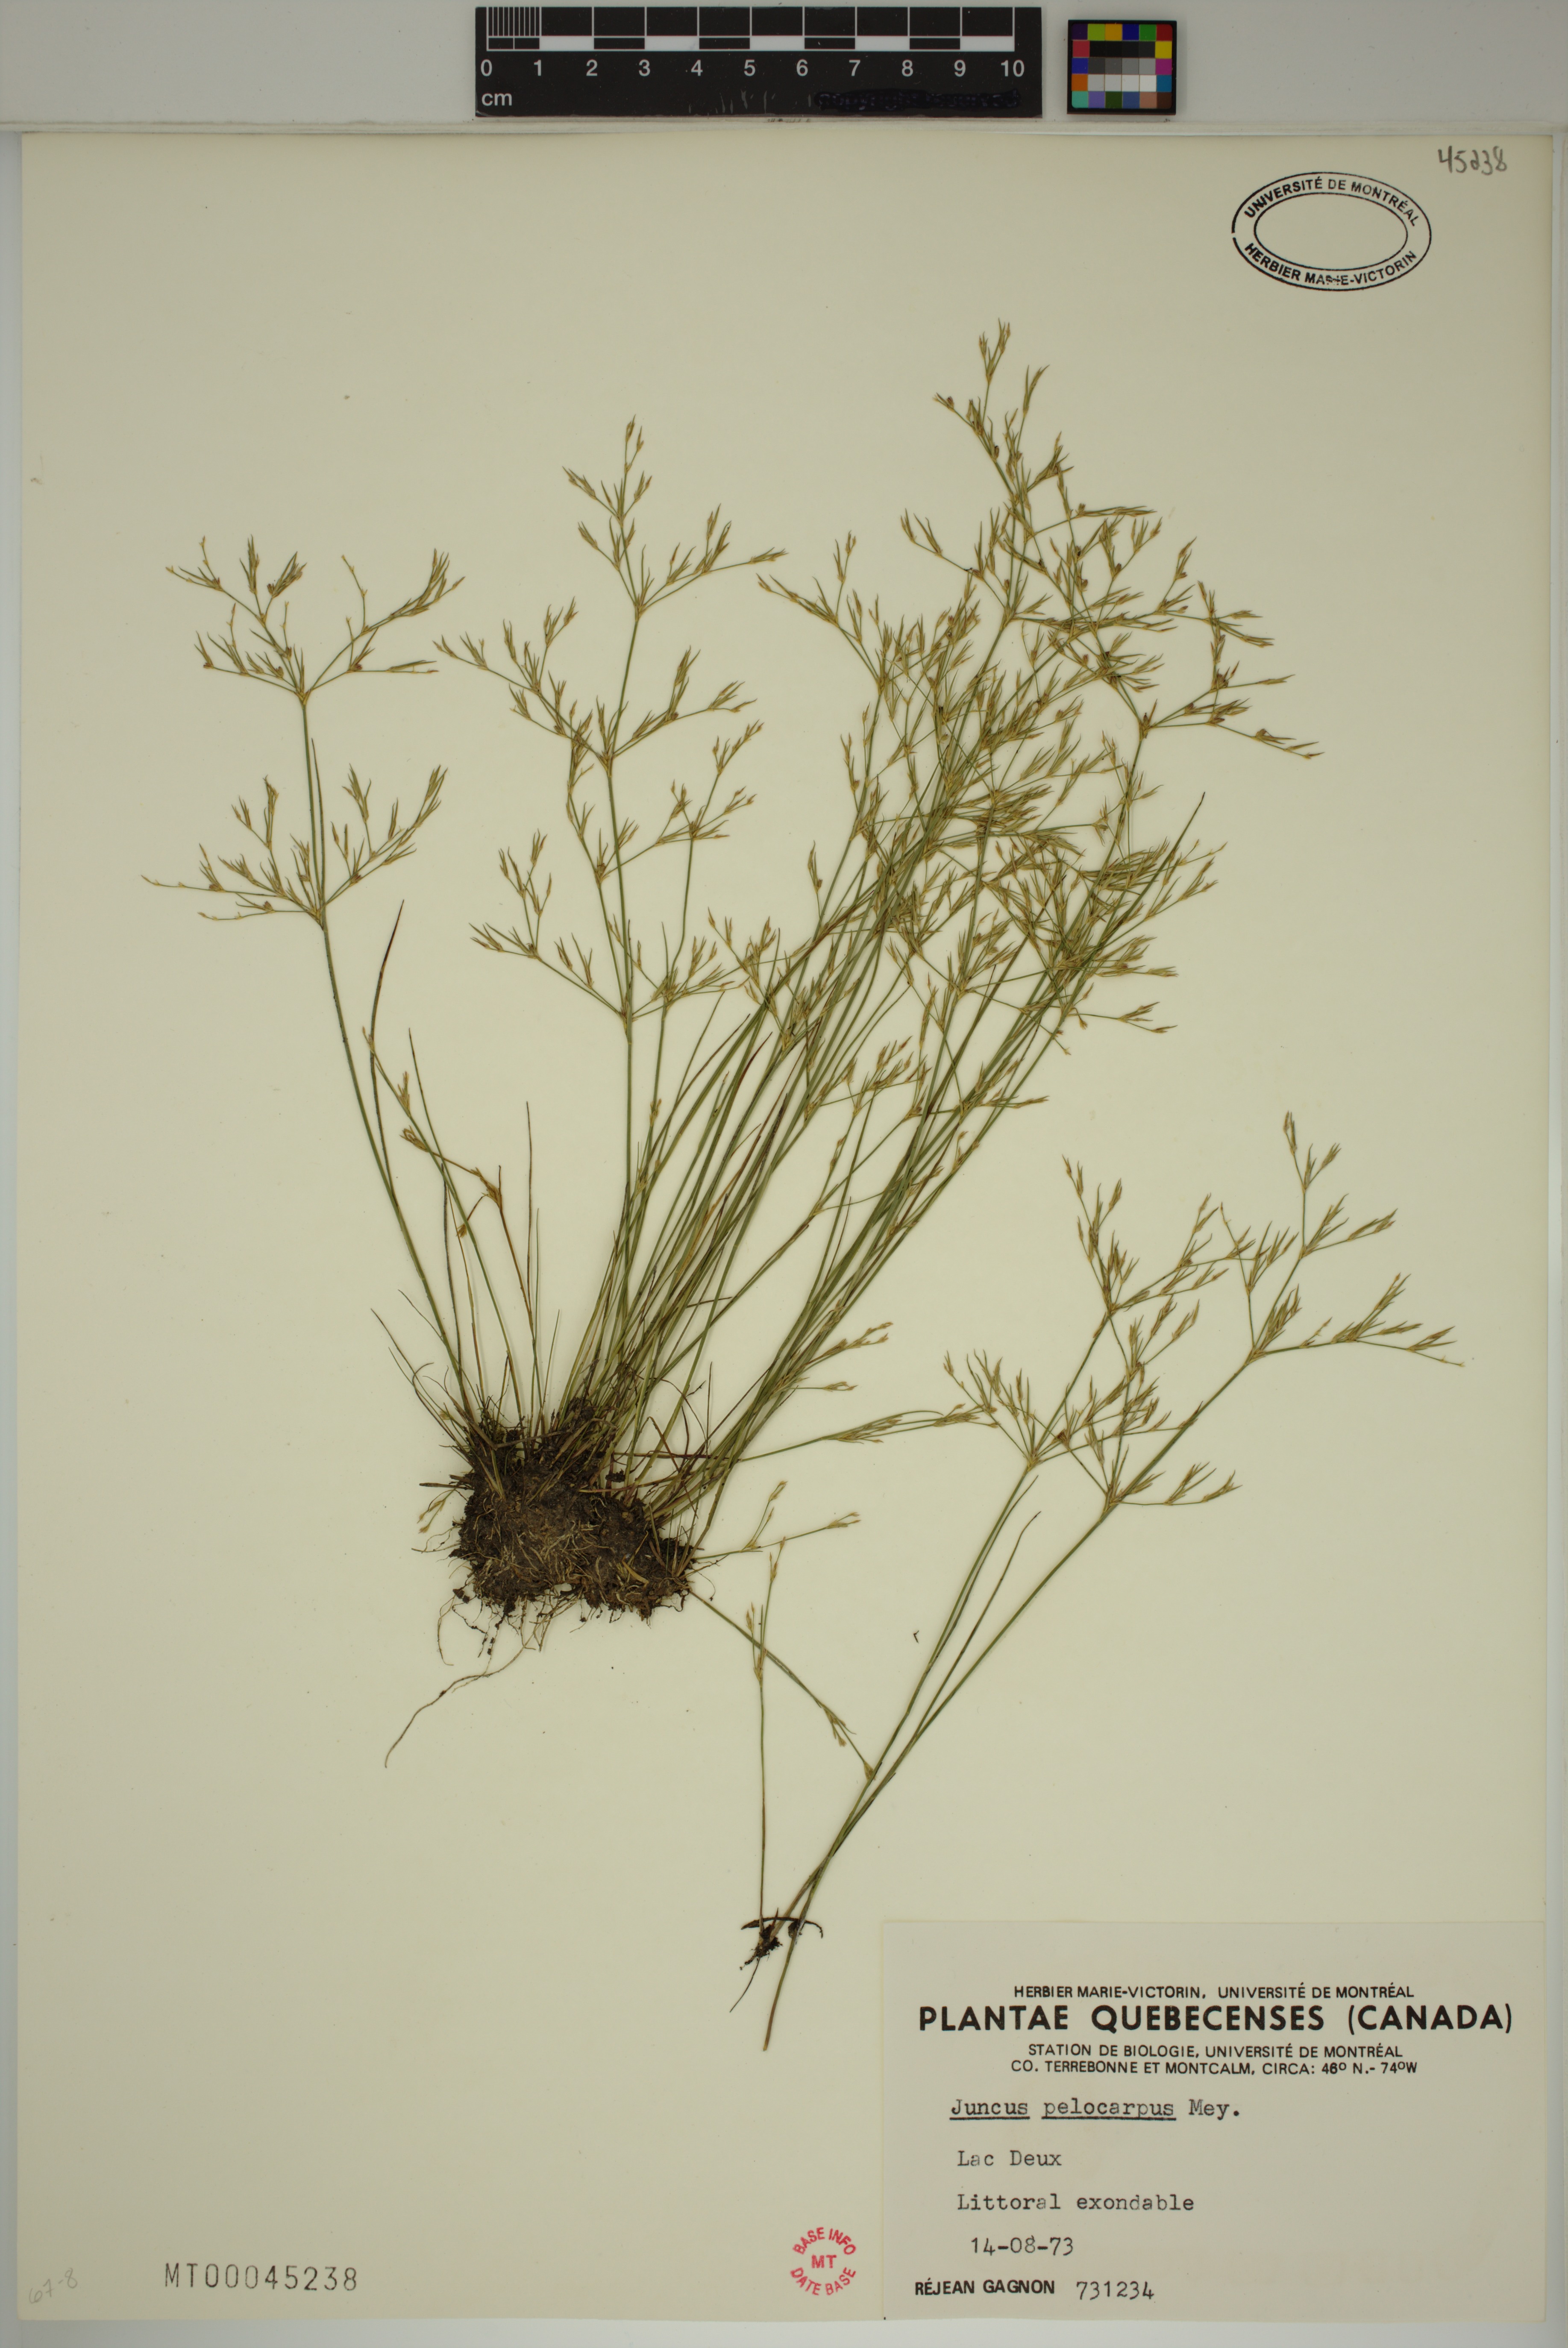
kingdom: Plantae
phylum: Tracheophyta
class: Liliopsida
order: Poales
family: Juncaceae
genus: Juncus
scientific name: Juncus pelocarpus
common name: Brown-fruited rush
